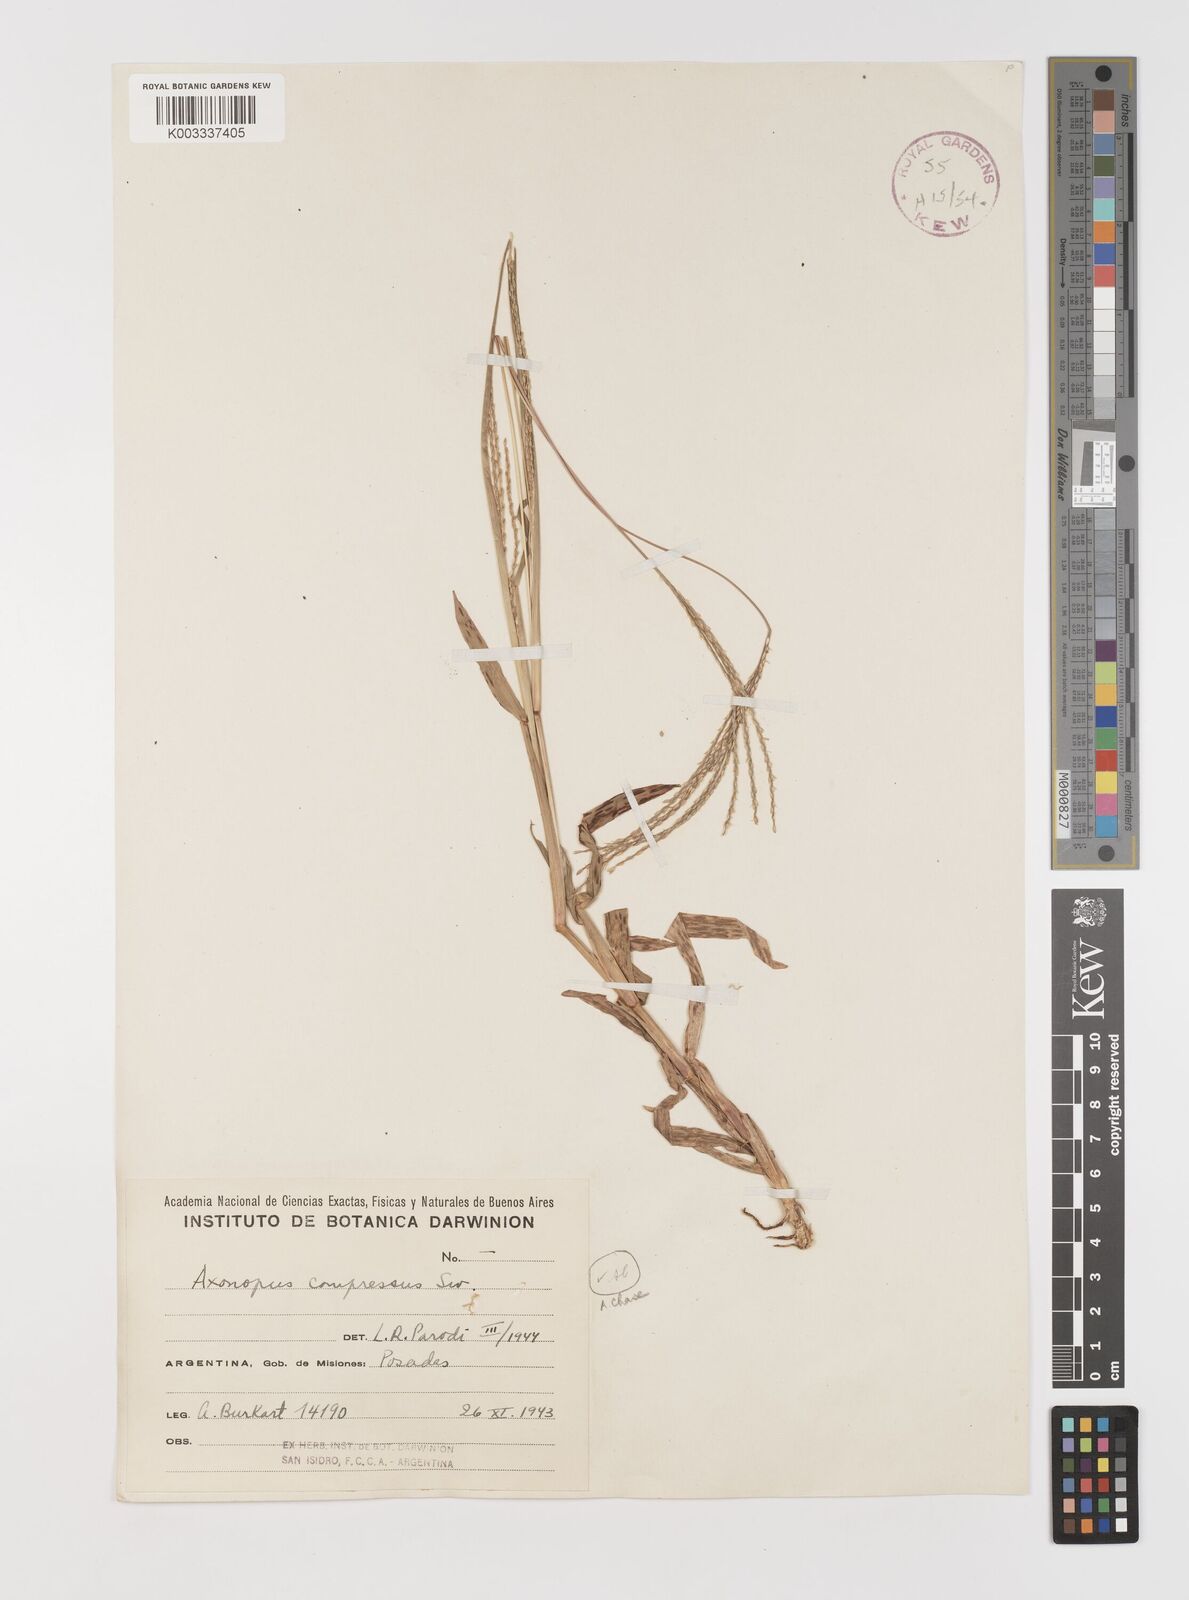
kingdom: Plantae
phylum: Tracheophyta
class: Liliopsida
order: Poales
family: Poaceae
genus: Axonopus
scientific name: Axonopus compressus
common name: American carpet grass
